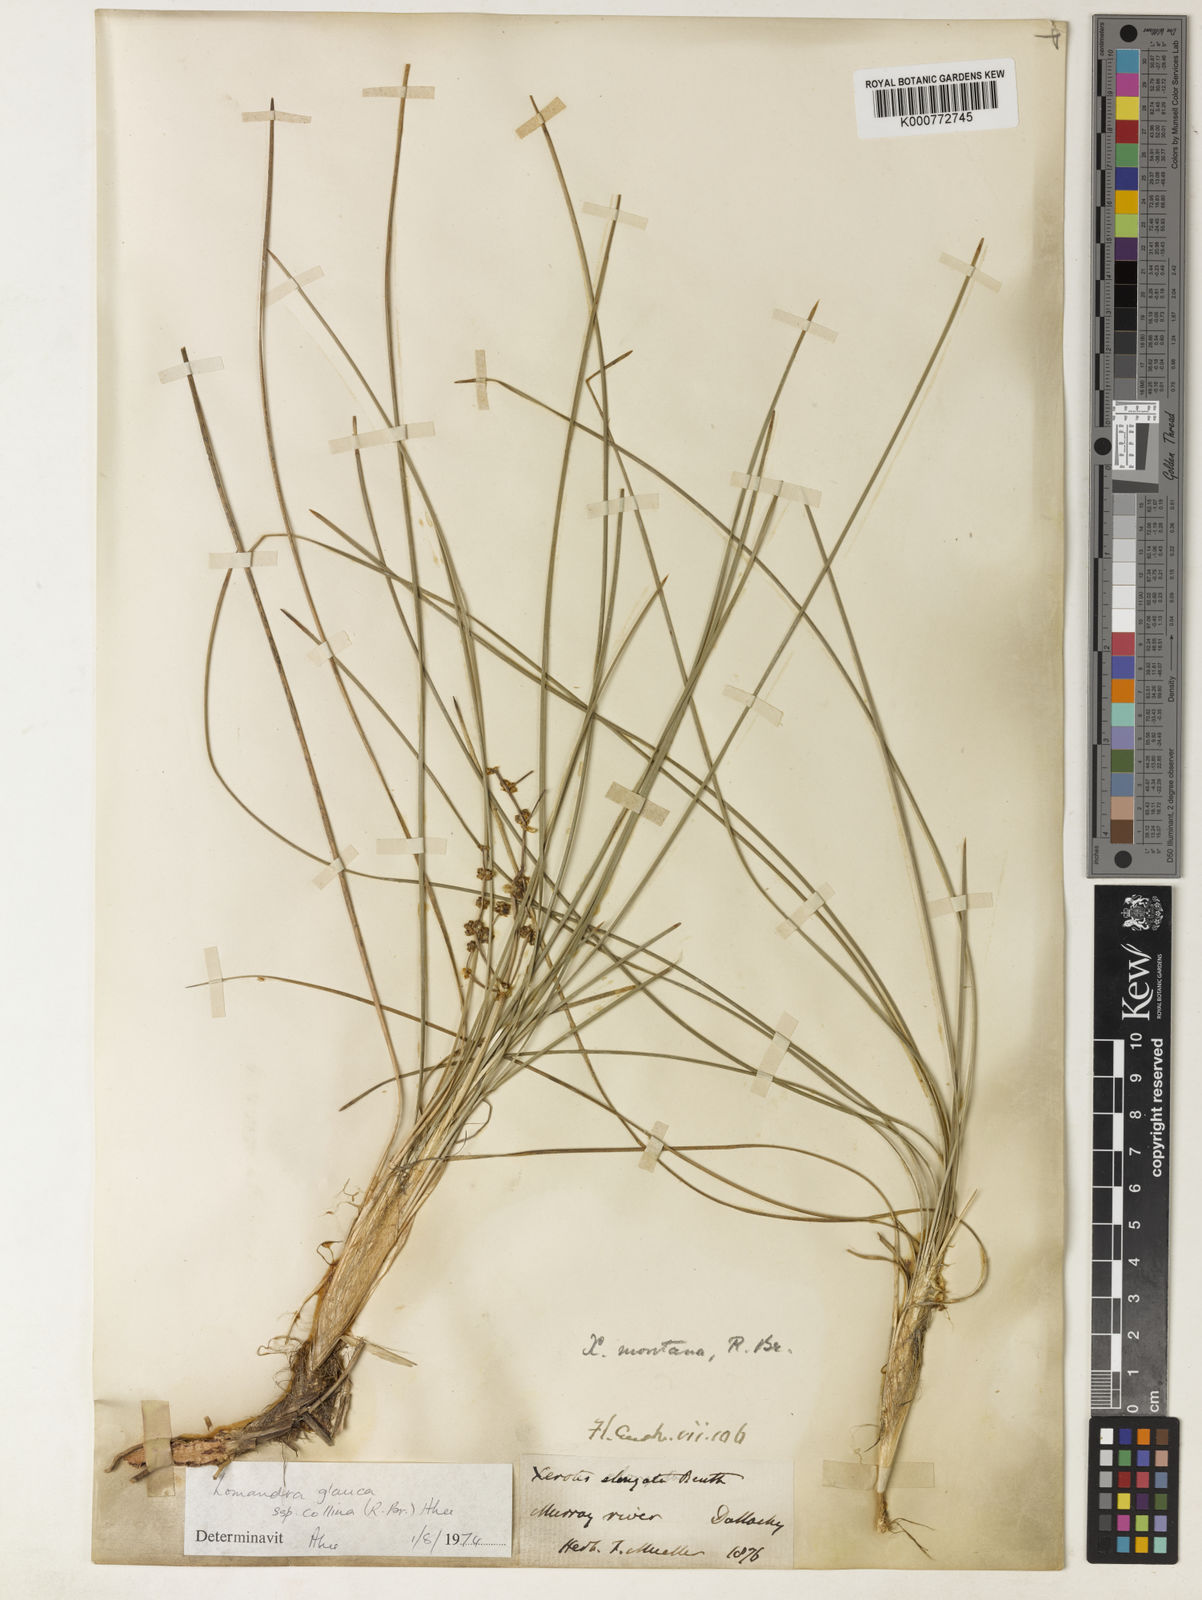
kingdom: Plantae
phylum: Tracheophyta
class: Liliopsida
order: Asparagales
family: Asparagaceae
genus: Lomandra
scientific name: Lomandra elongata
